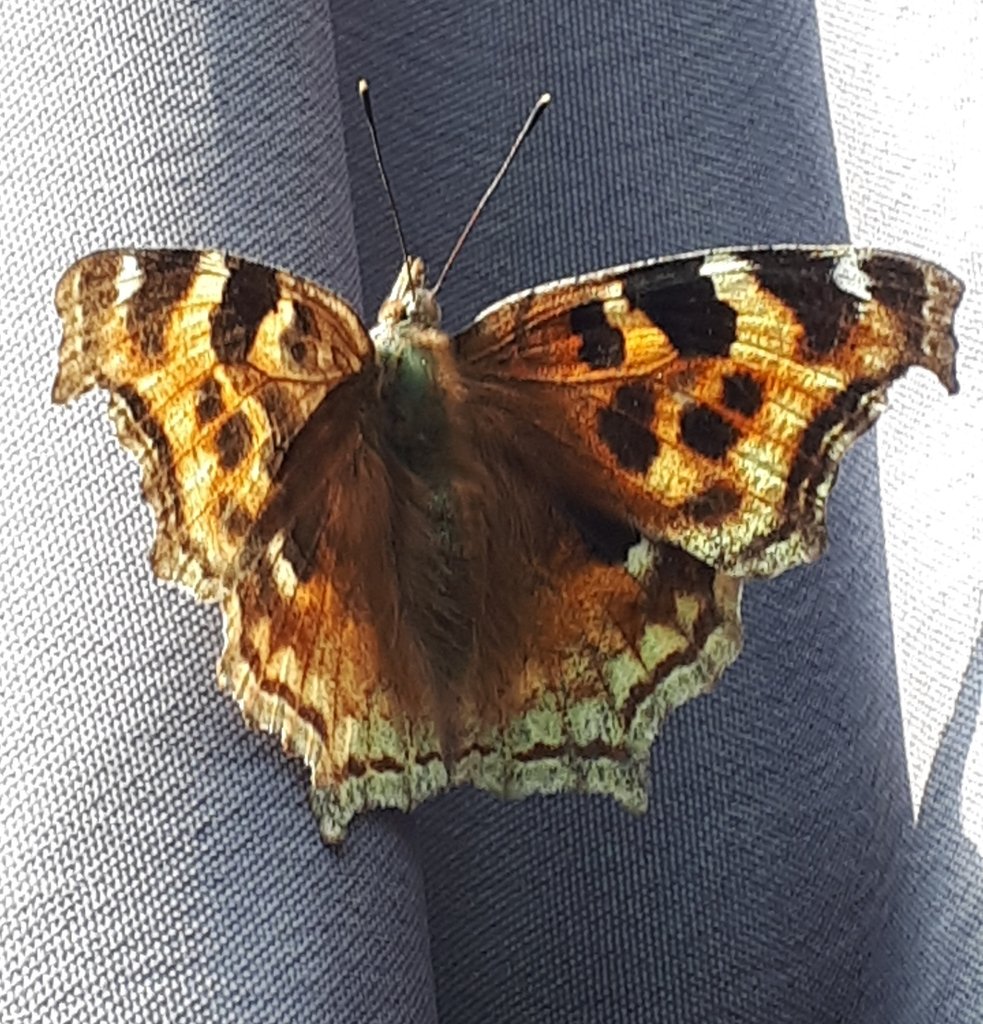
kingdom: Animalia
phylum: Arthropoda
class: Insecta
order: Lepidoptera
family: Nymphalidae
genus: Polygonia
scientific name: Polygonia vaualbum
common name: Compton Tortoiseshell
